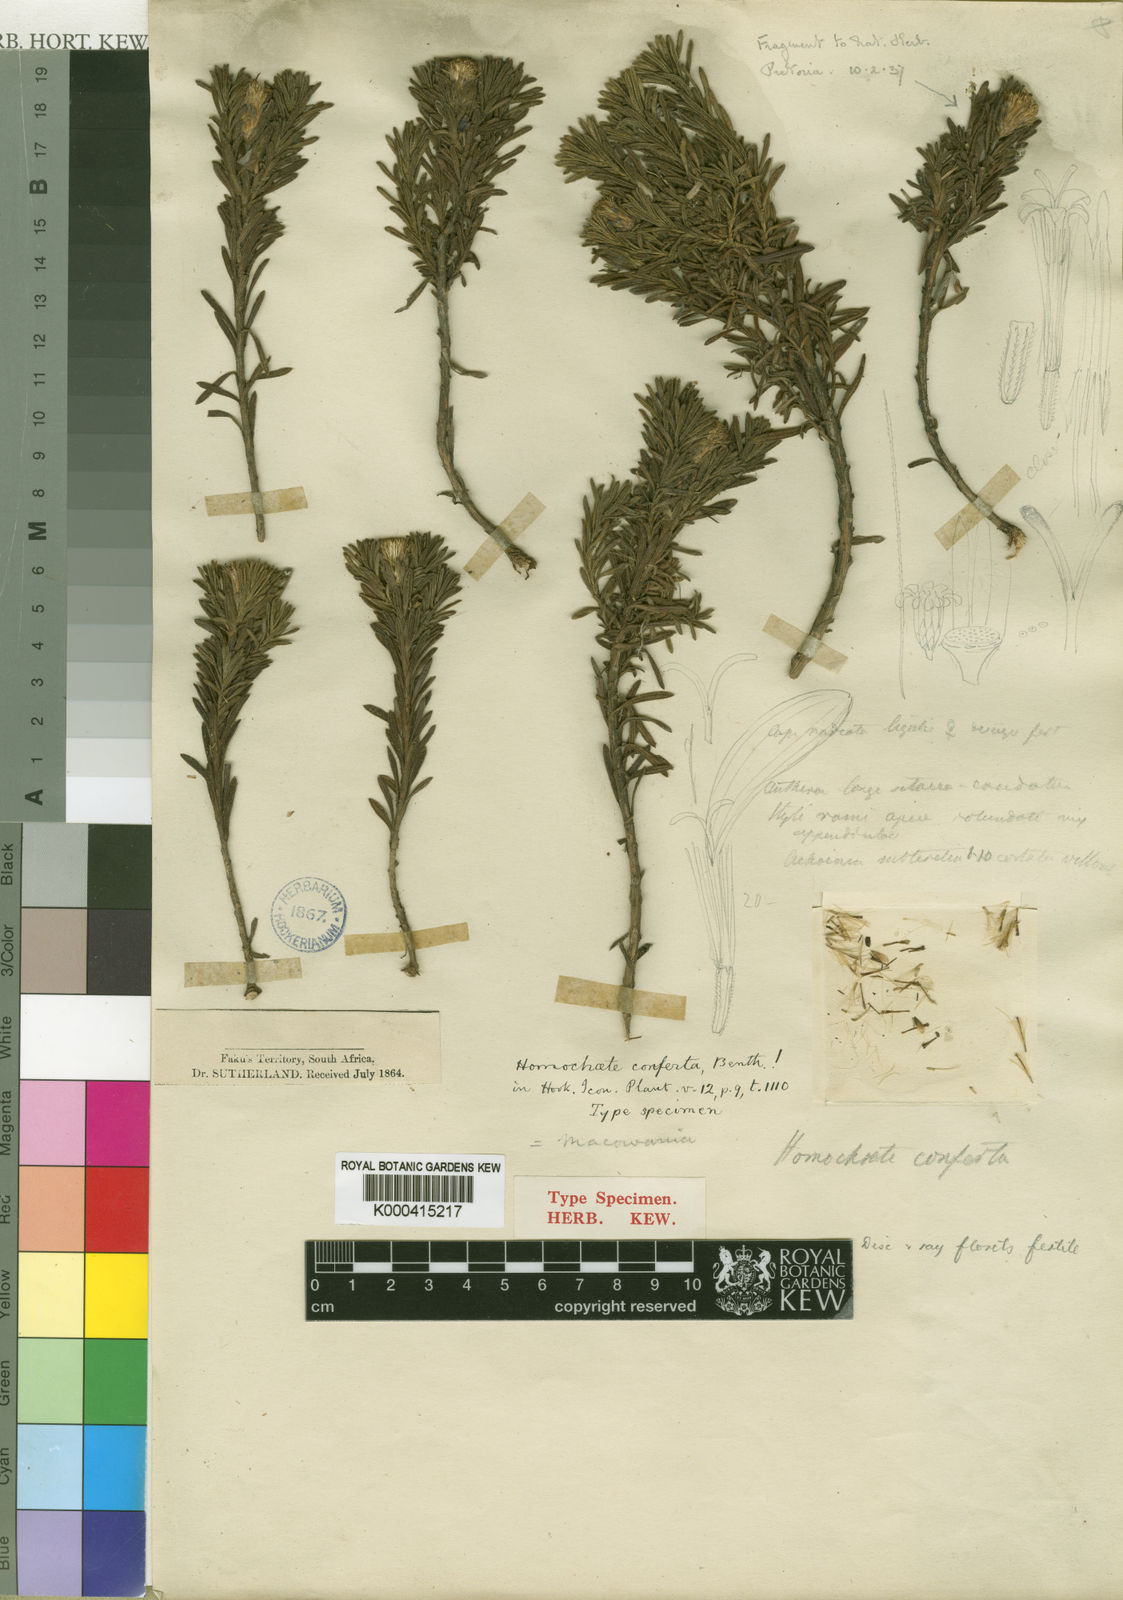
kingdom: Plantae
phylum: Tracheophyta
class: Magnoliopsida
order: Asterales
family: Asteraceae
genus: Arrowsmithia
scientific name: Arrowsmithia conferta
